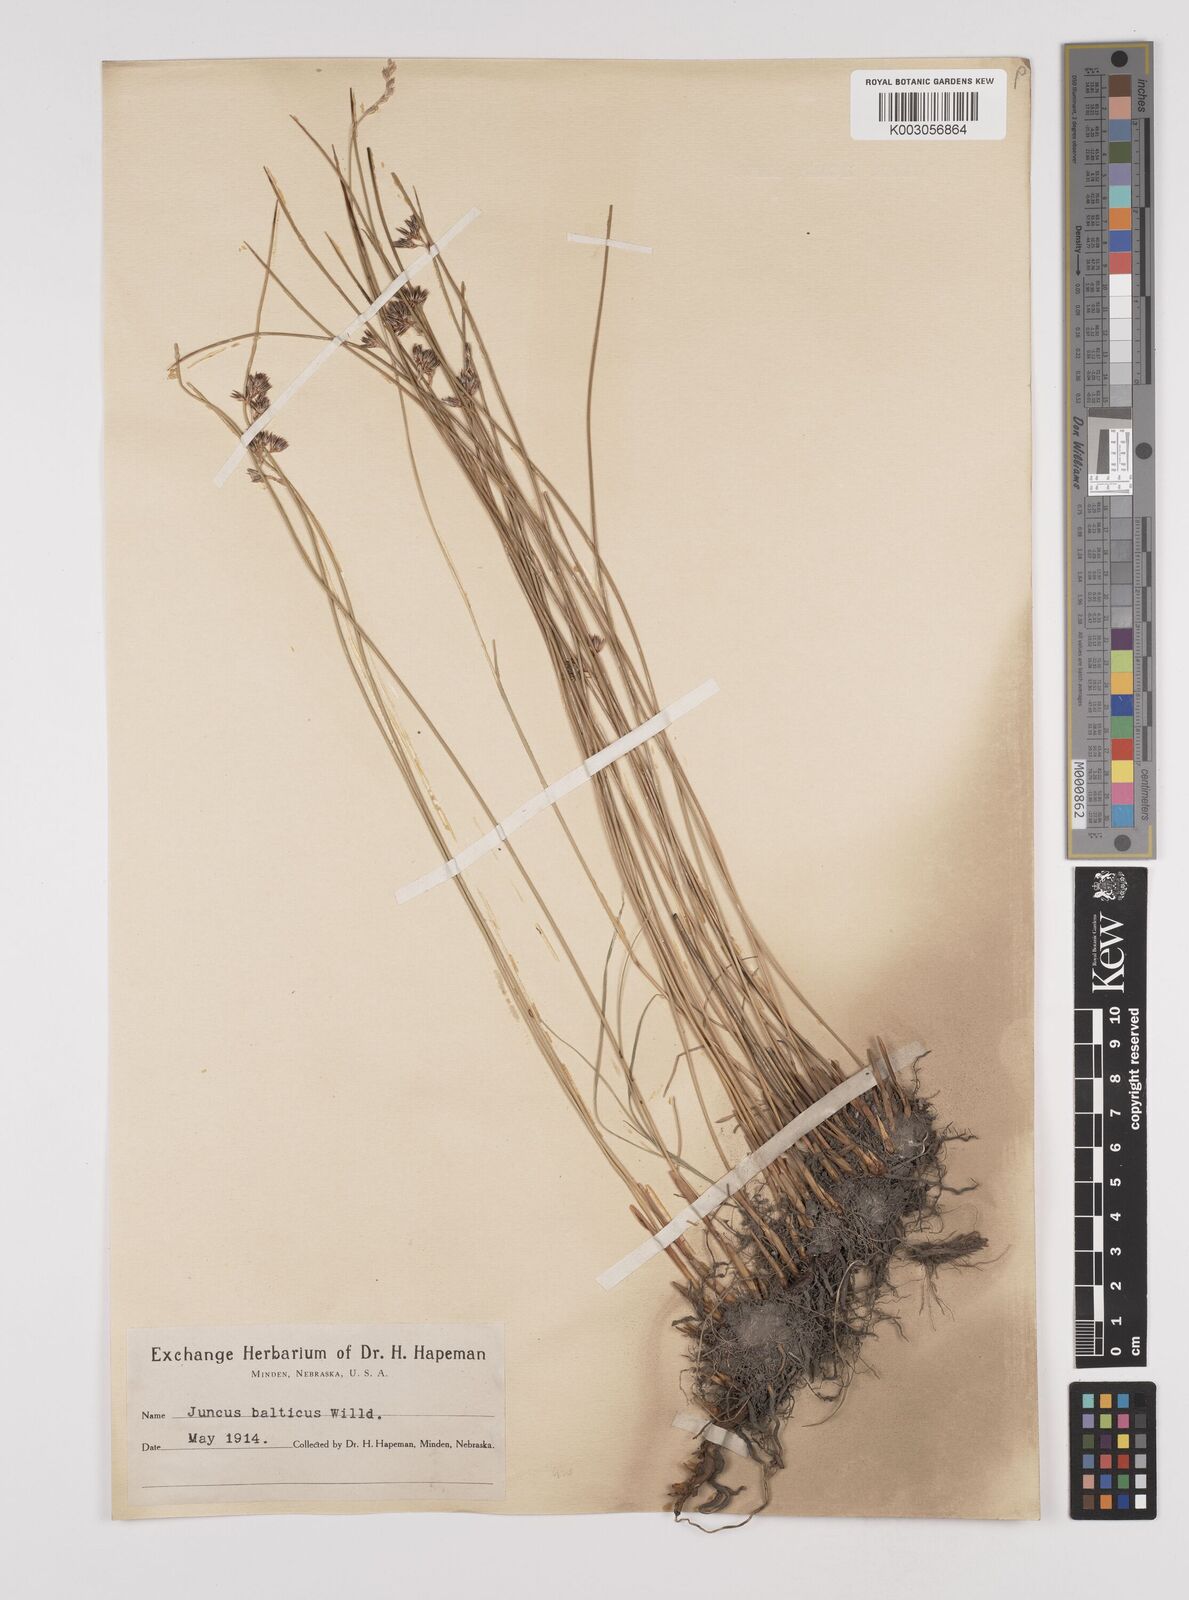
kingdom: Plantae
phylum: Tracheophyta
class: Liliopsida
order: Poales
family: Juncaceae
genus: Juncus
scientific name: Juncus balticus
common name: Baltic rush
